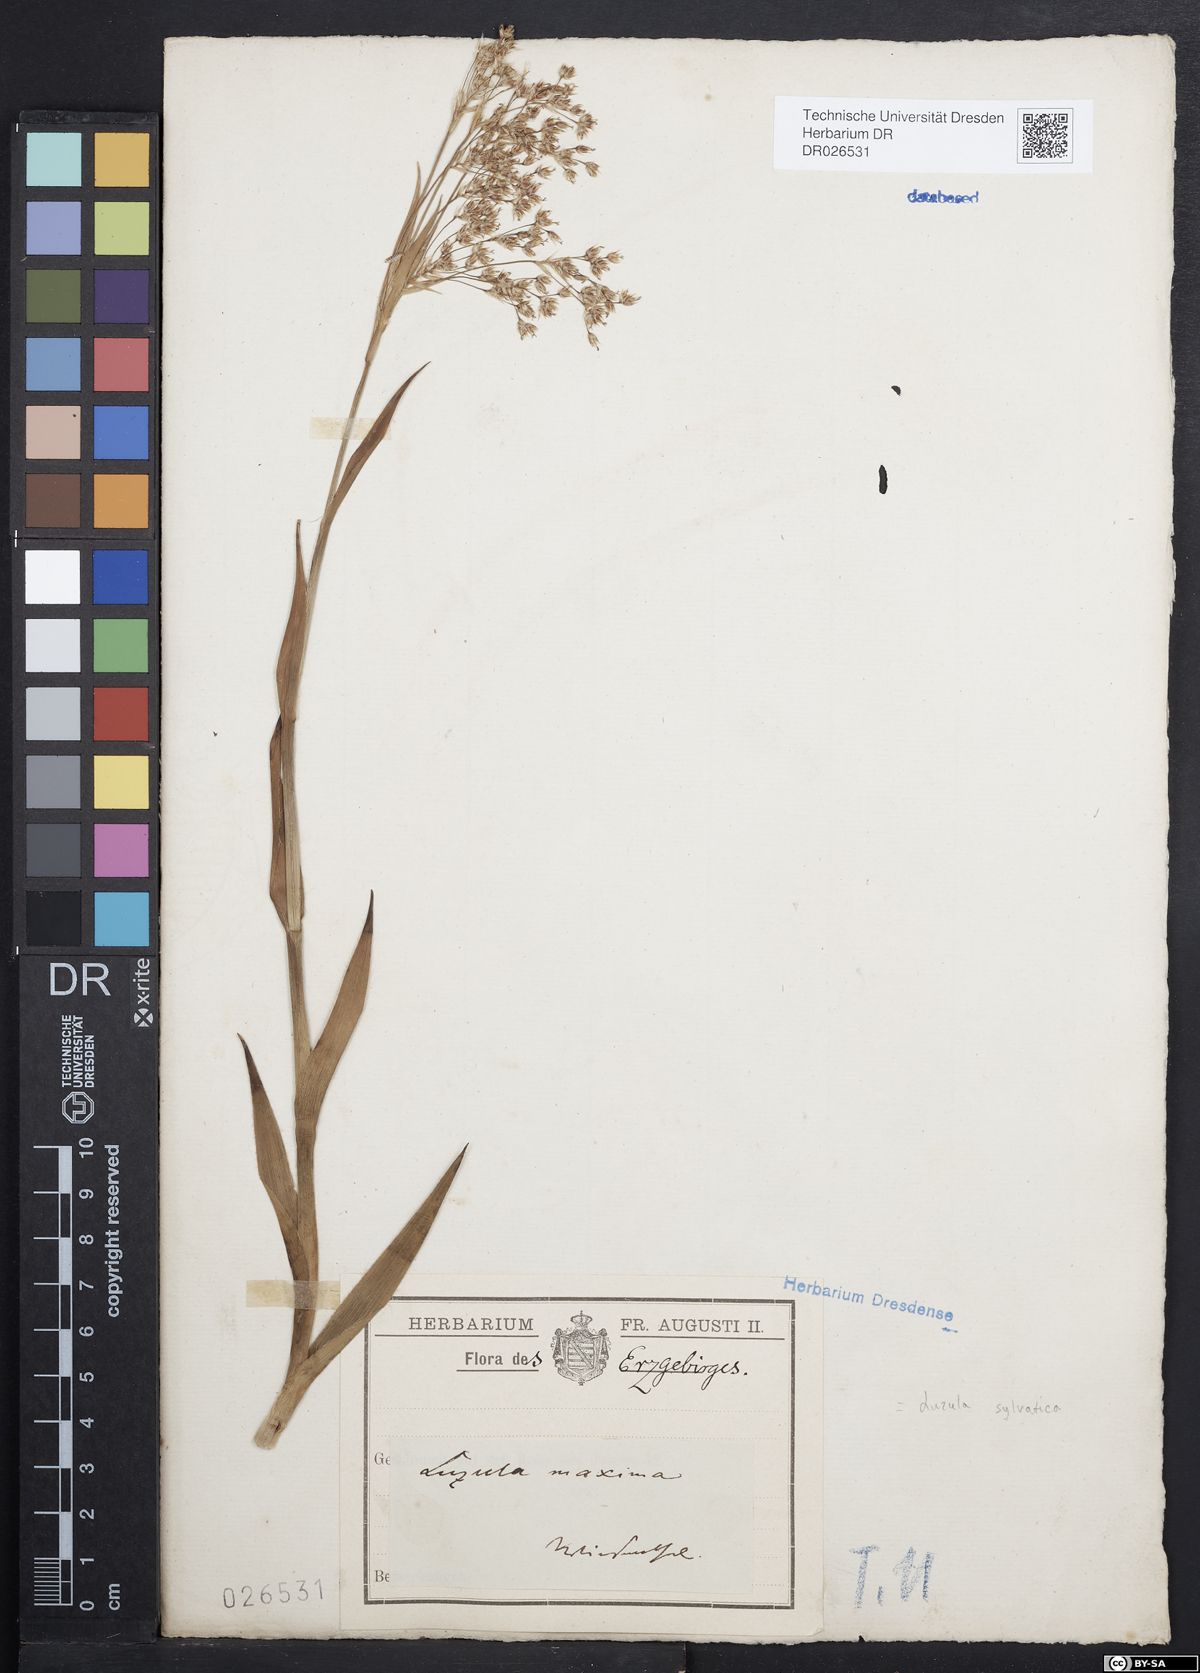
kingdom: Plantae
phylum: Tracheophyta
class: Liliopsida
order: Poales
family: Juncaceae
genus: Luzula
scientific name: Luzula sylvatica
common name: Great wood-rush
